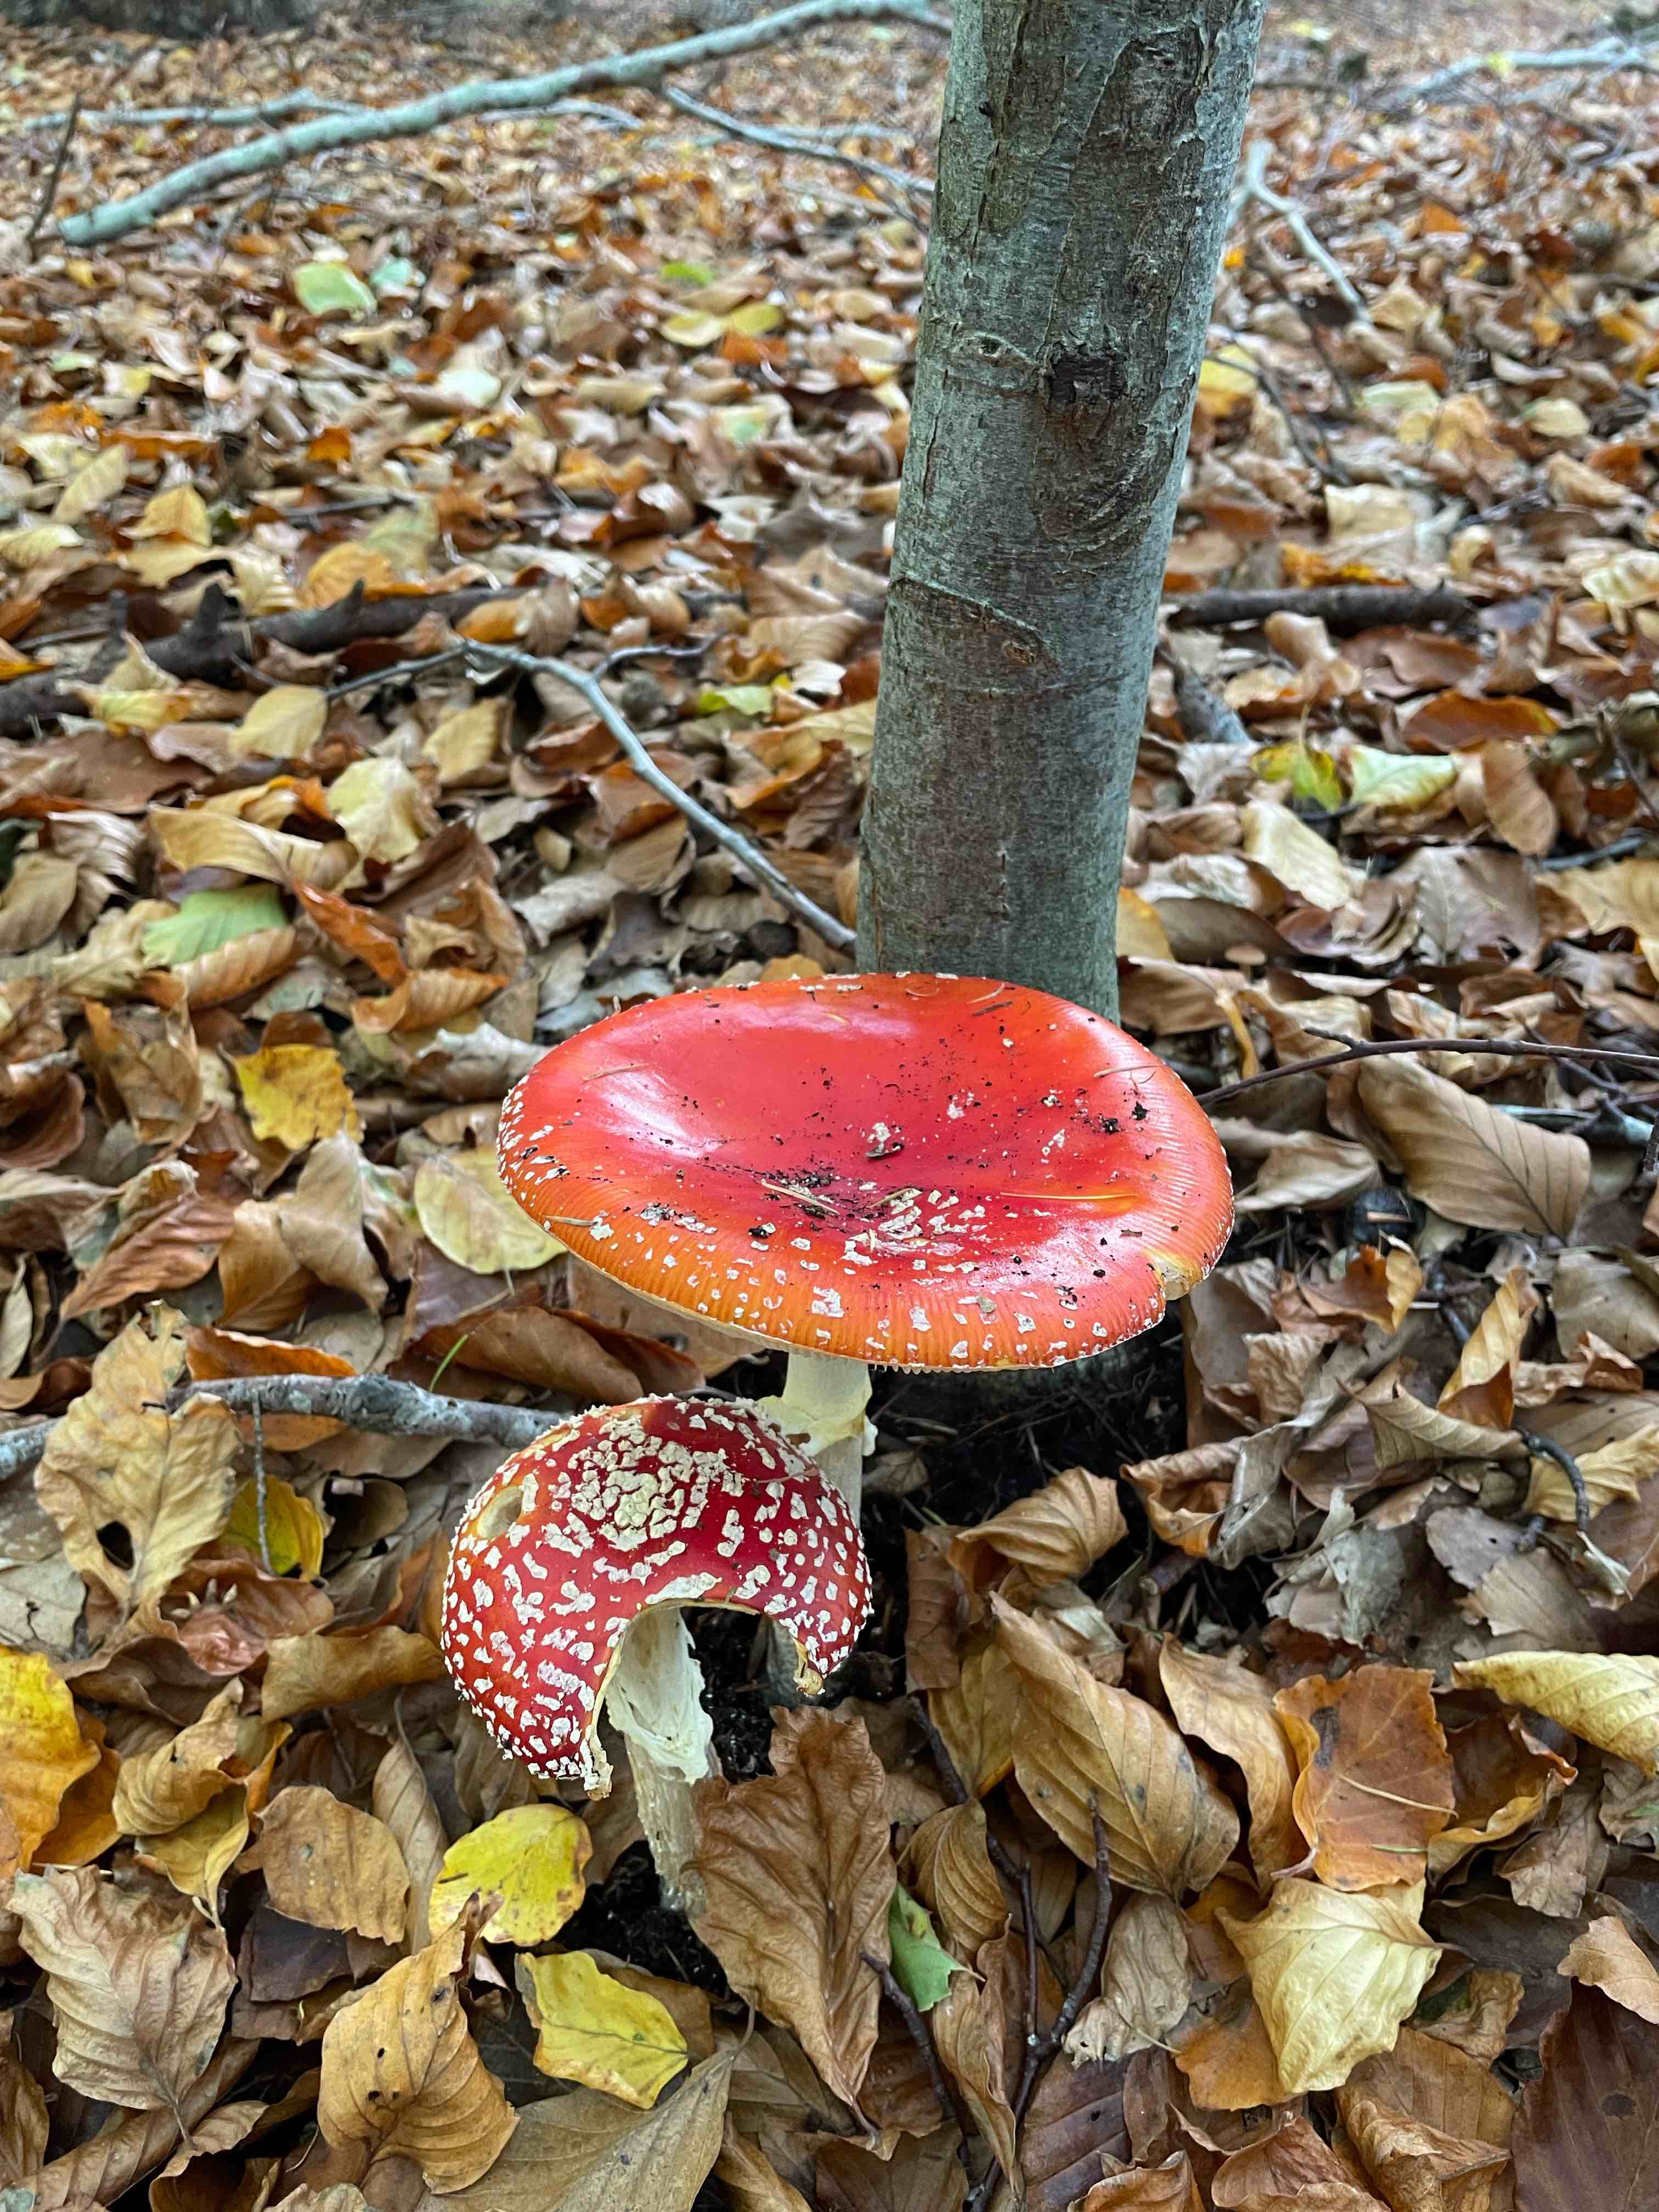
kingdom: Fungi
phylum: Basidiomycota
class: Agaricomycetes
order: Agaricales
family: Amanitaceae
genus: Amanita
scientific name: Amanita muscaria
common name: rød fluesvamp
